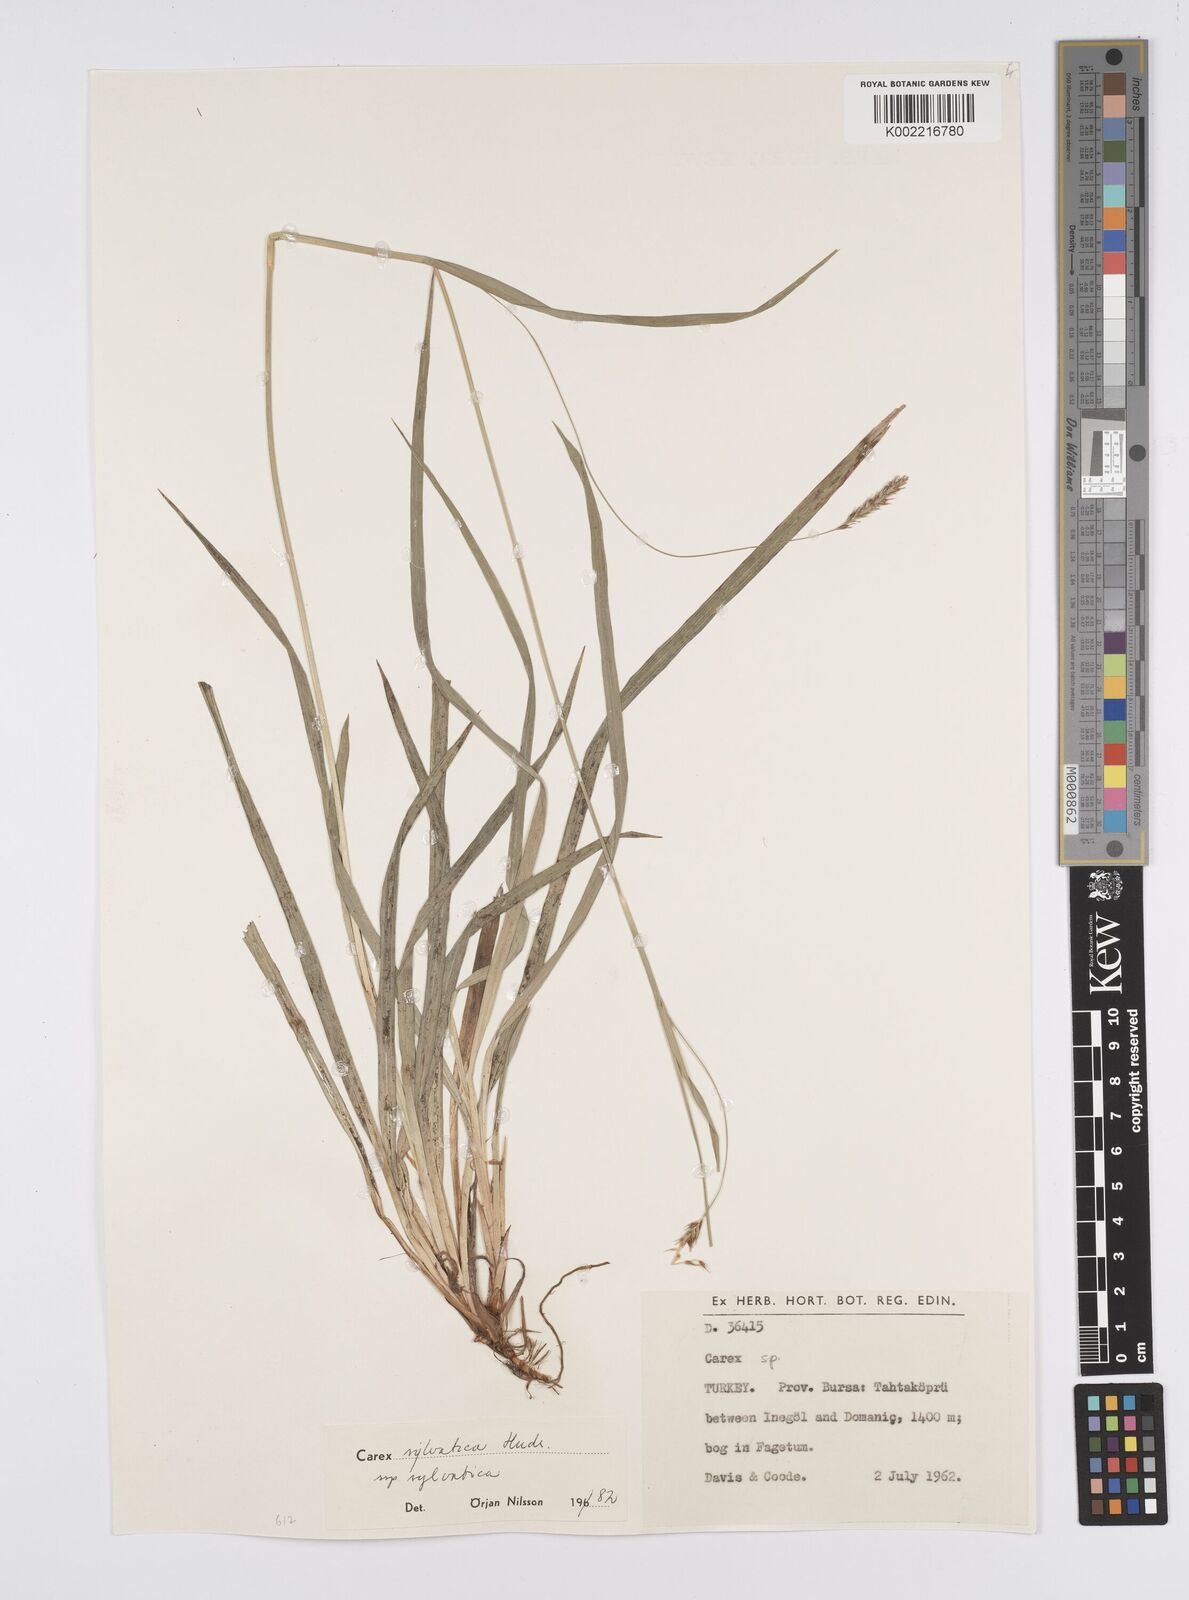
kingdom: Plantae
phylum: Tracheophyta
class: Liliopsida
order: Poales
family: Cyperaceae
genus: Carex
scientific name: Carex sylvatica
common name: Wood-sedge
